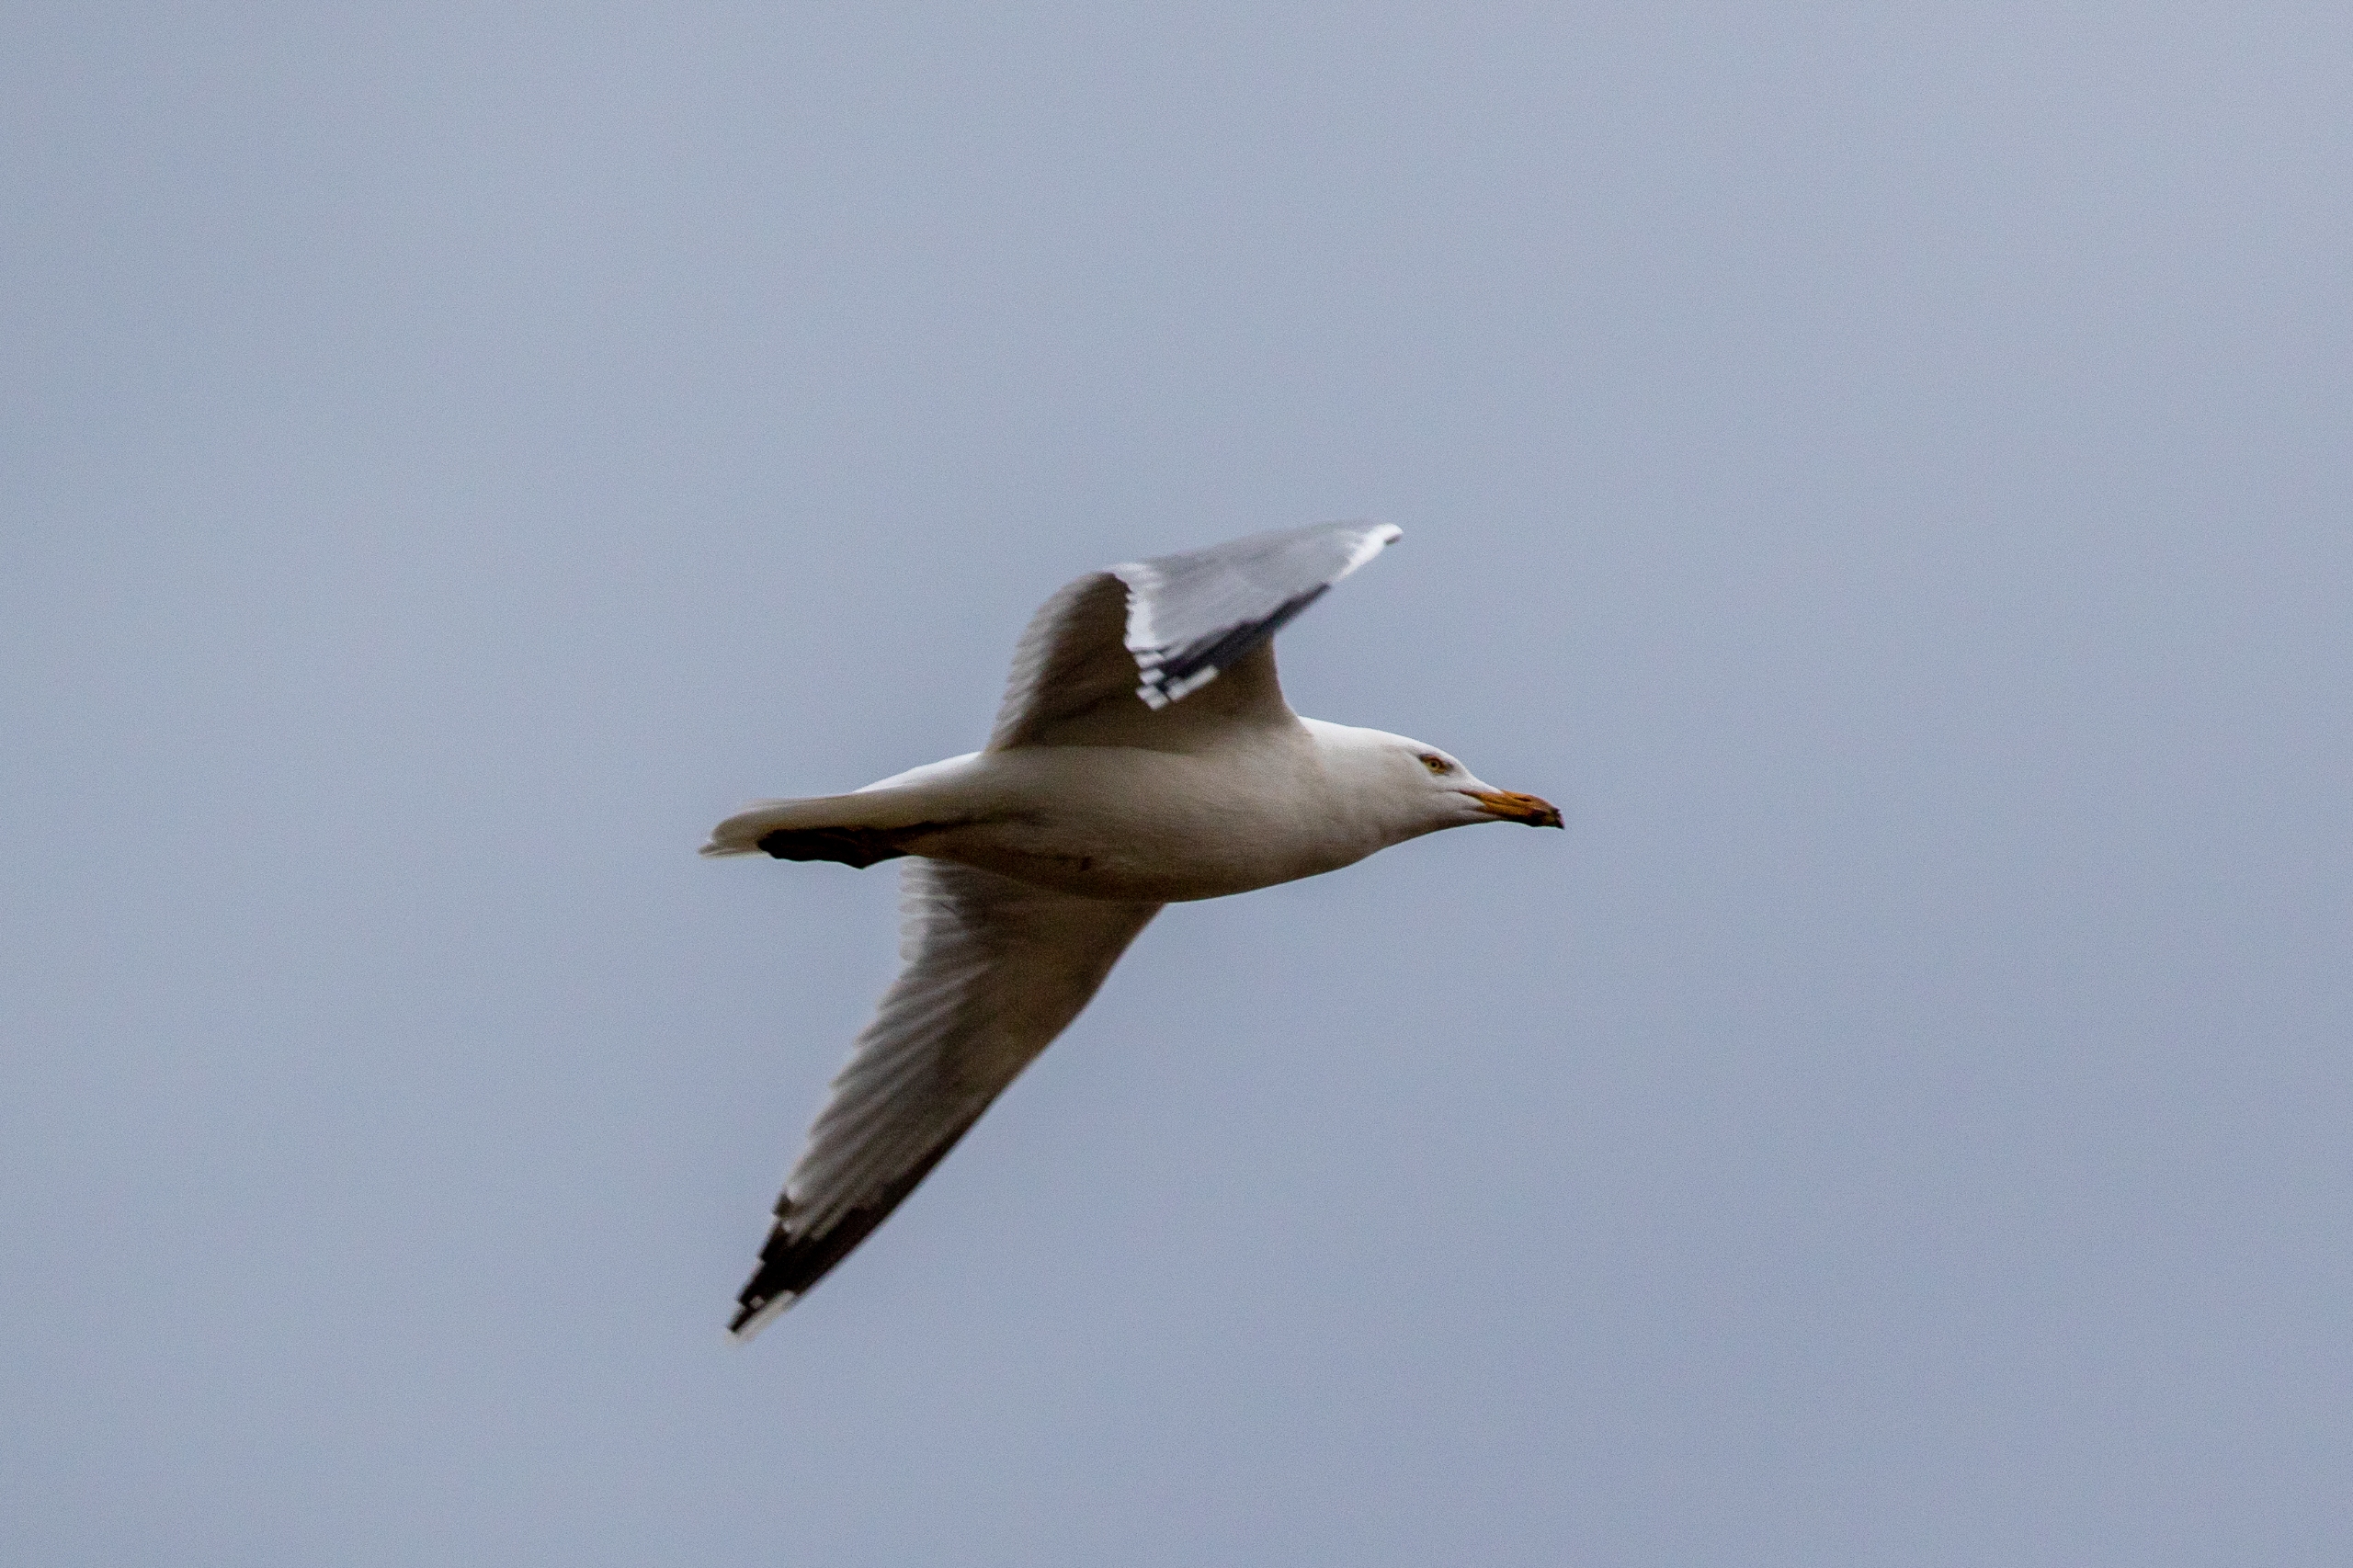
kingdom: Animalia
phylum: Chordata
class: Aves
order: Charadriiformes
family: Laridae
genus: Larus
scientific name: Larus argentatus
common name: Sølvmåge
